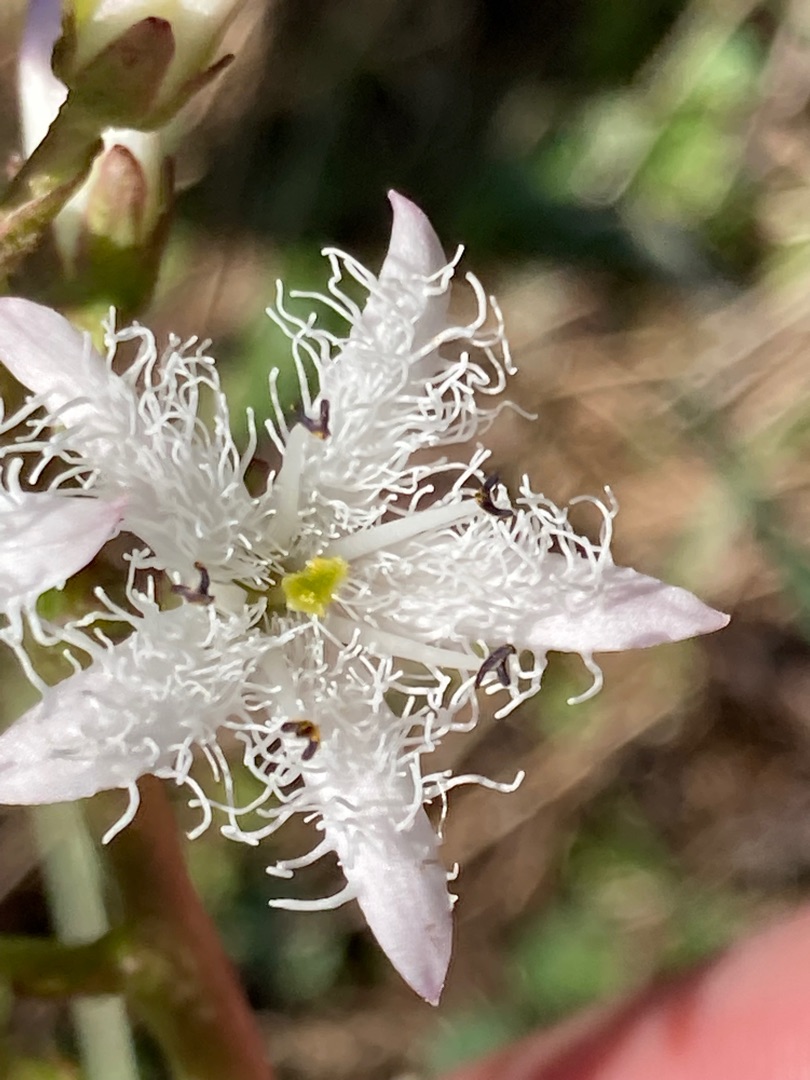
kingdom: Plantae
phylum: Tracheophyta
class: Magnoliopsida
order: Asterales
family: Menyanthaceae
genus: Menyanthes
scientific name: Menyanthes trifoliata
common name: Bukkeblad
